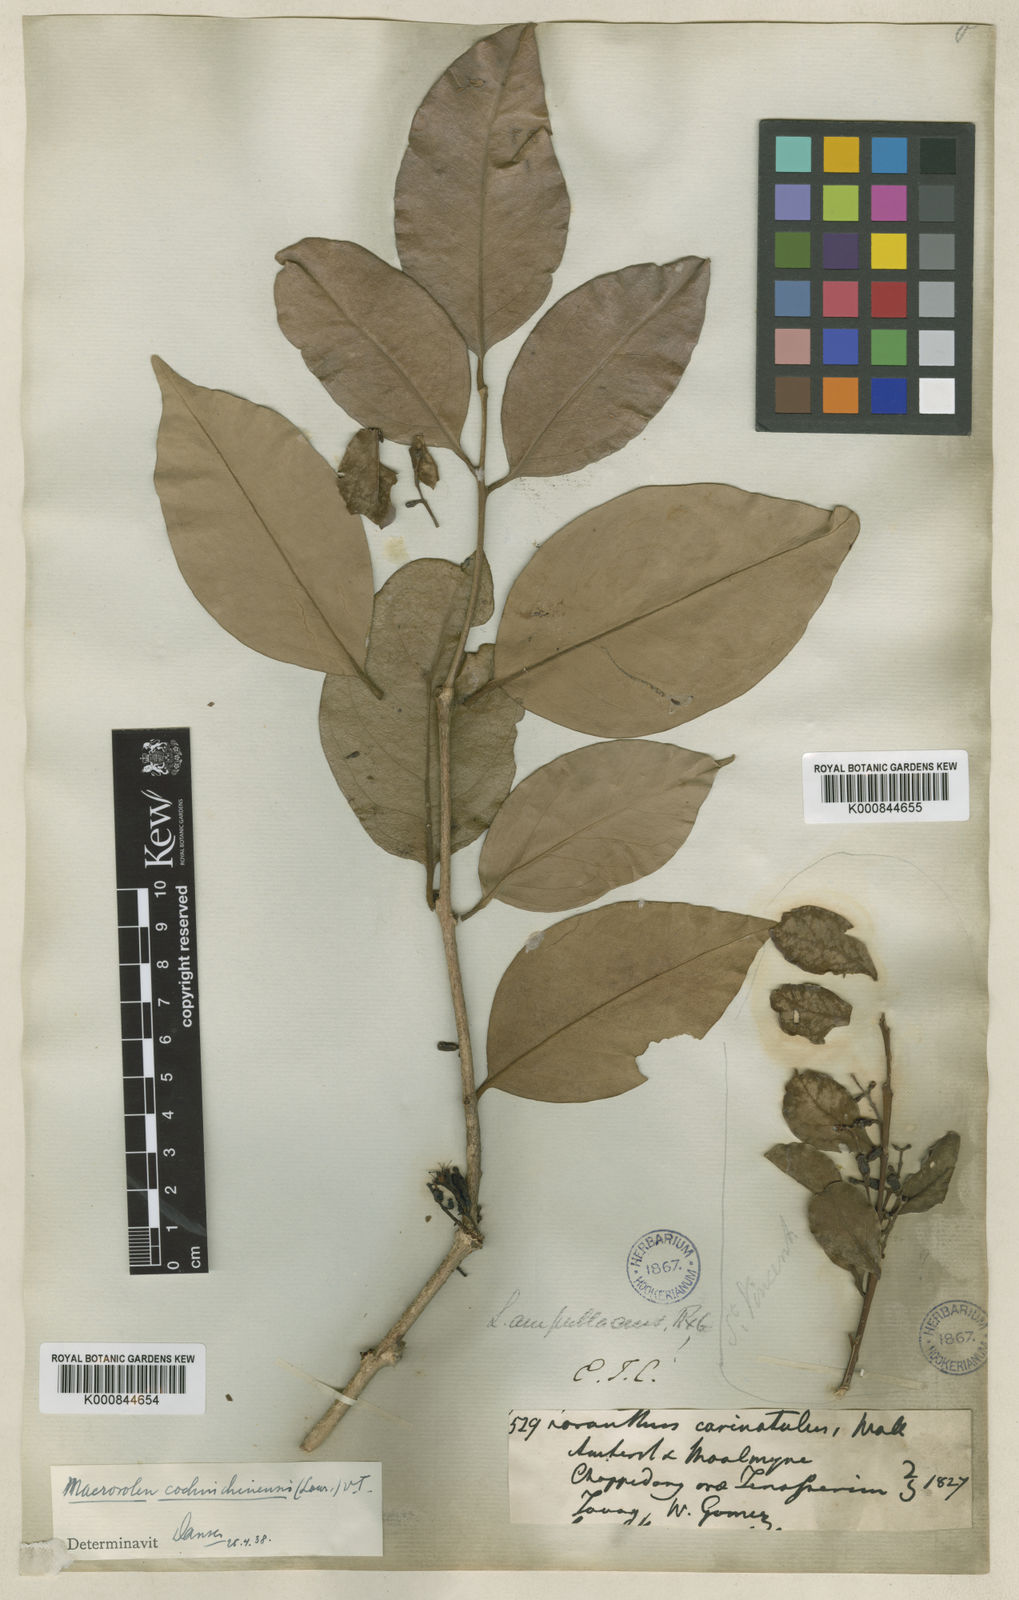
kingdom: Plantae
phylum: Tracheophyta
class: Magnoliopsida
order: Santalales
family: Loranthaceae
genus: Macrosolen
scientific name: Macrosolen cochinchinensis
